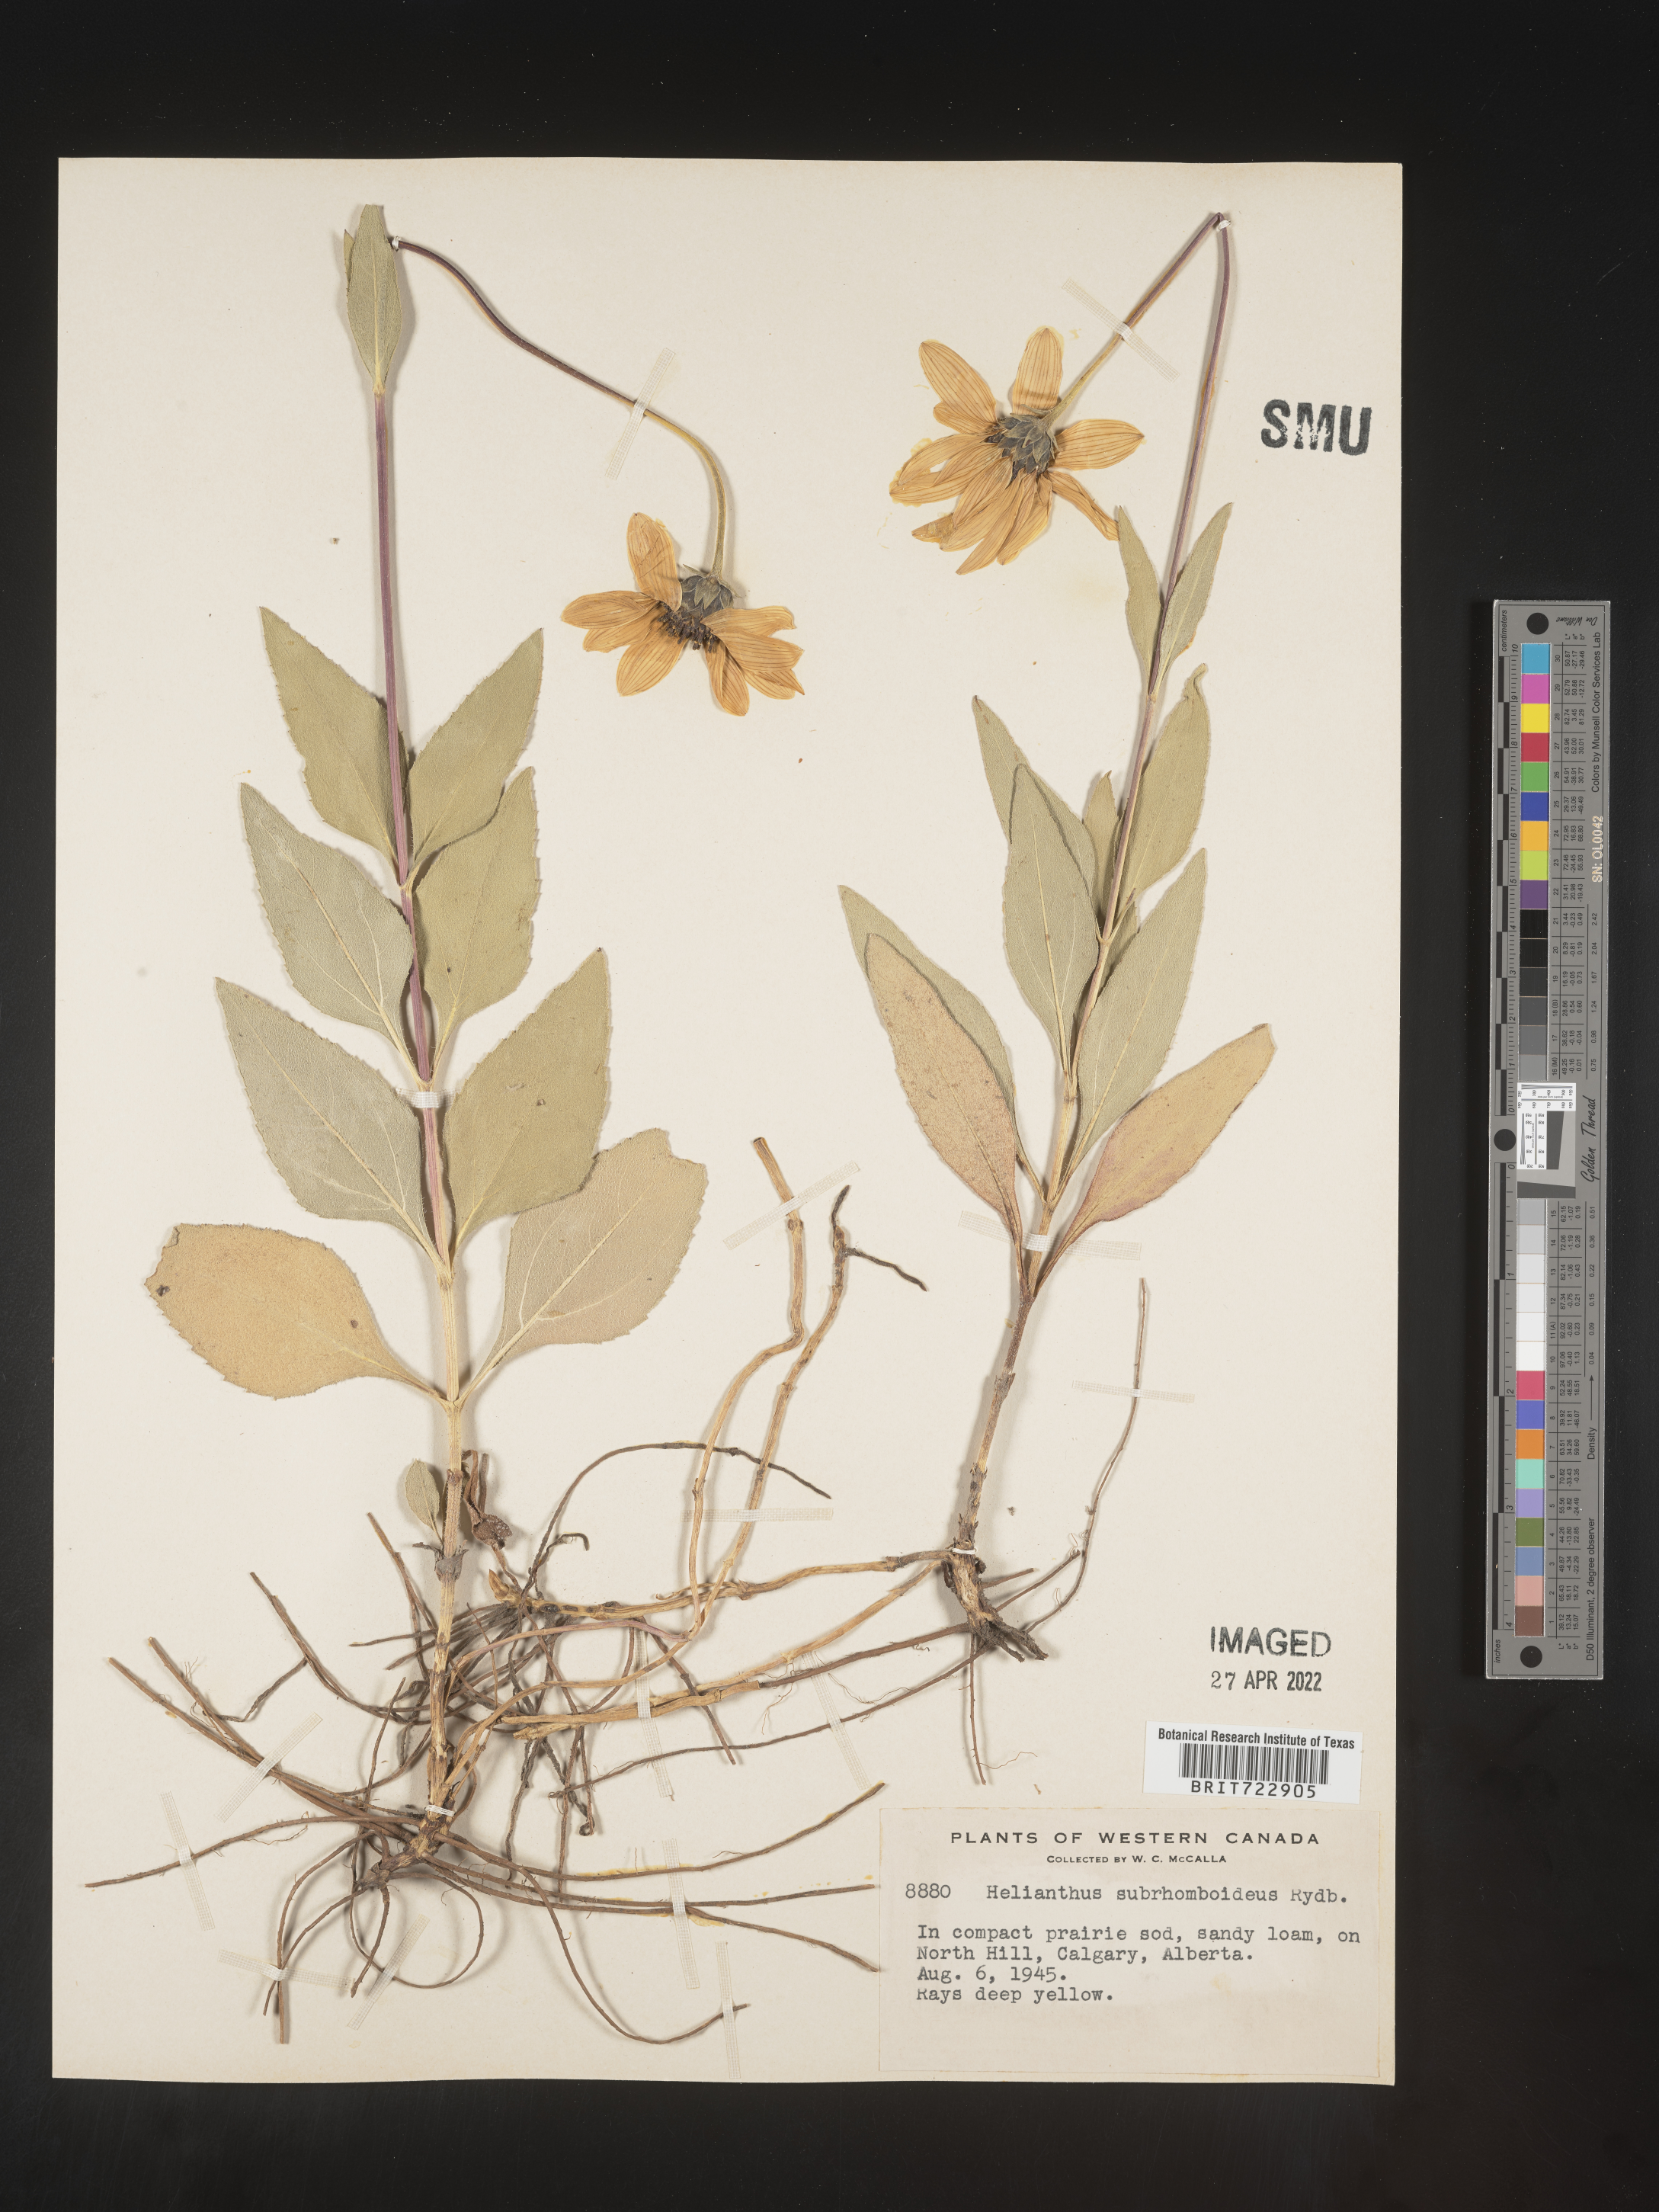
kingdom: Plantae
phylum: Tracheophyta
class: Magnoliopsida
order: Asterales
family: Asteraceae
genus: Helianthus
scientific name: Helianthus
